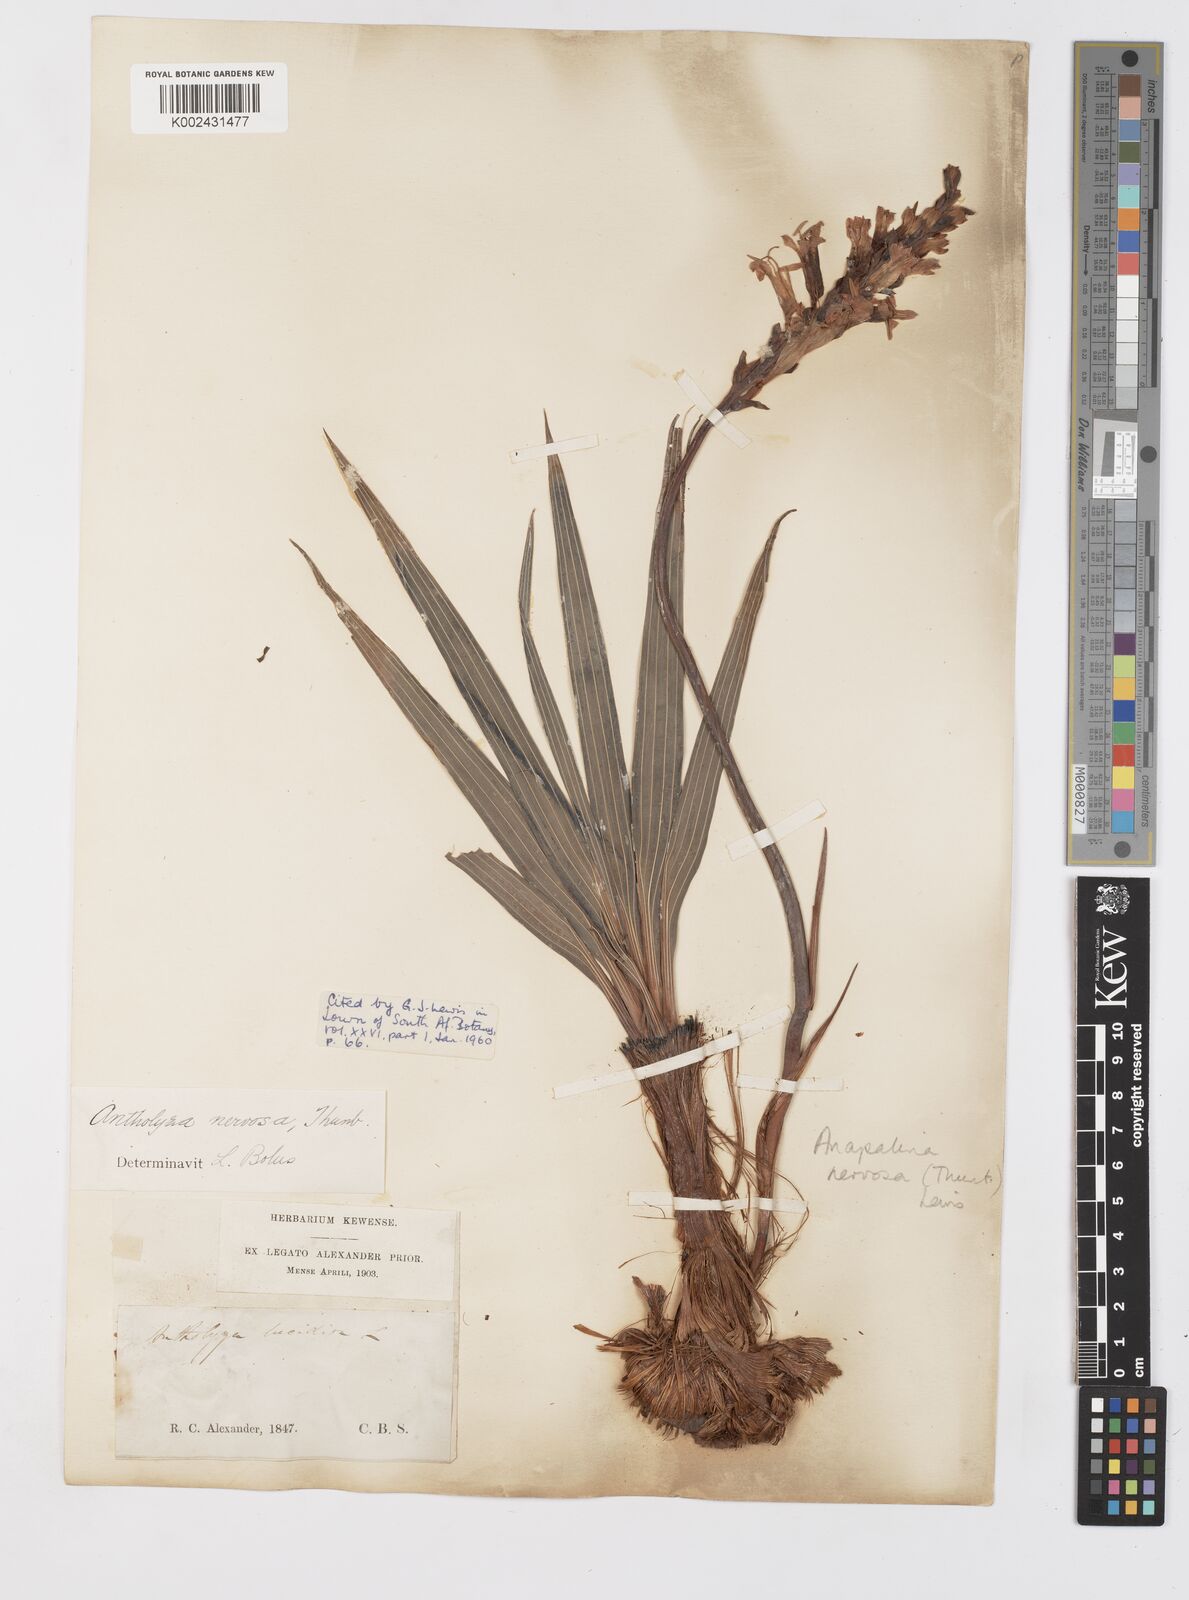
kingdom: Plantae
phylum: Tracheophyta
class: Liliopsida
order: Asparagales
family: Iridaceae
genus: Tritoniopsis
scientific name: Tritoniopsis nervosa
